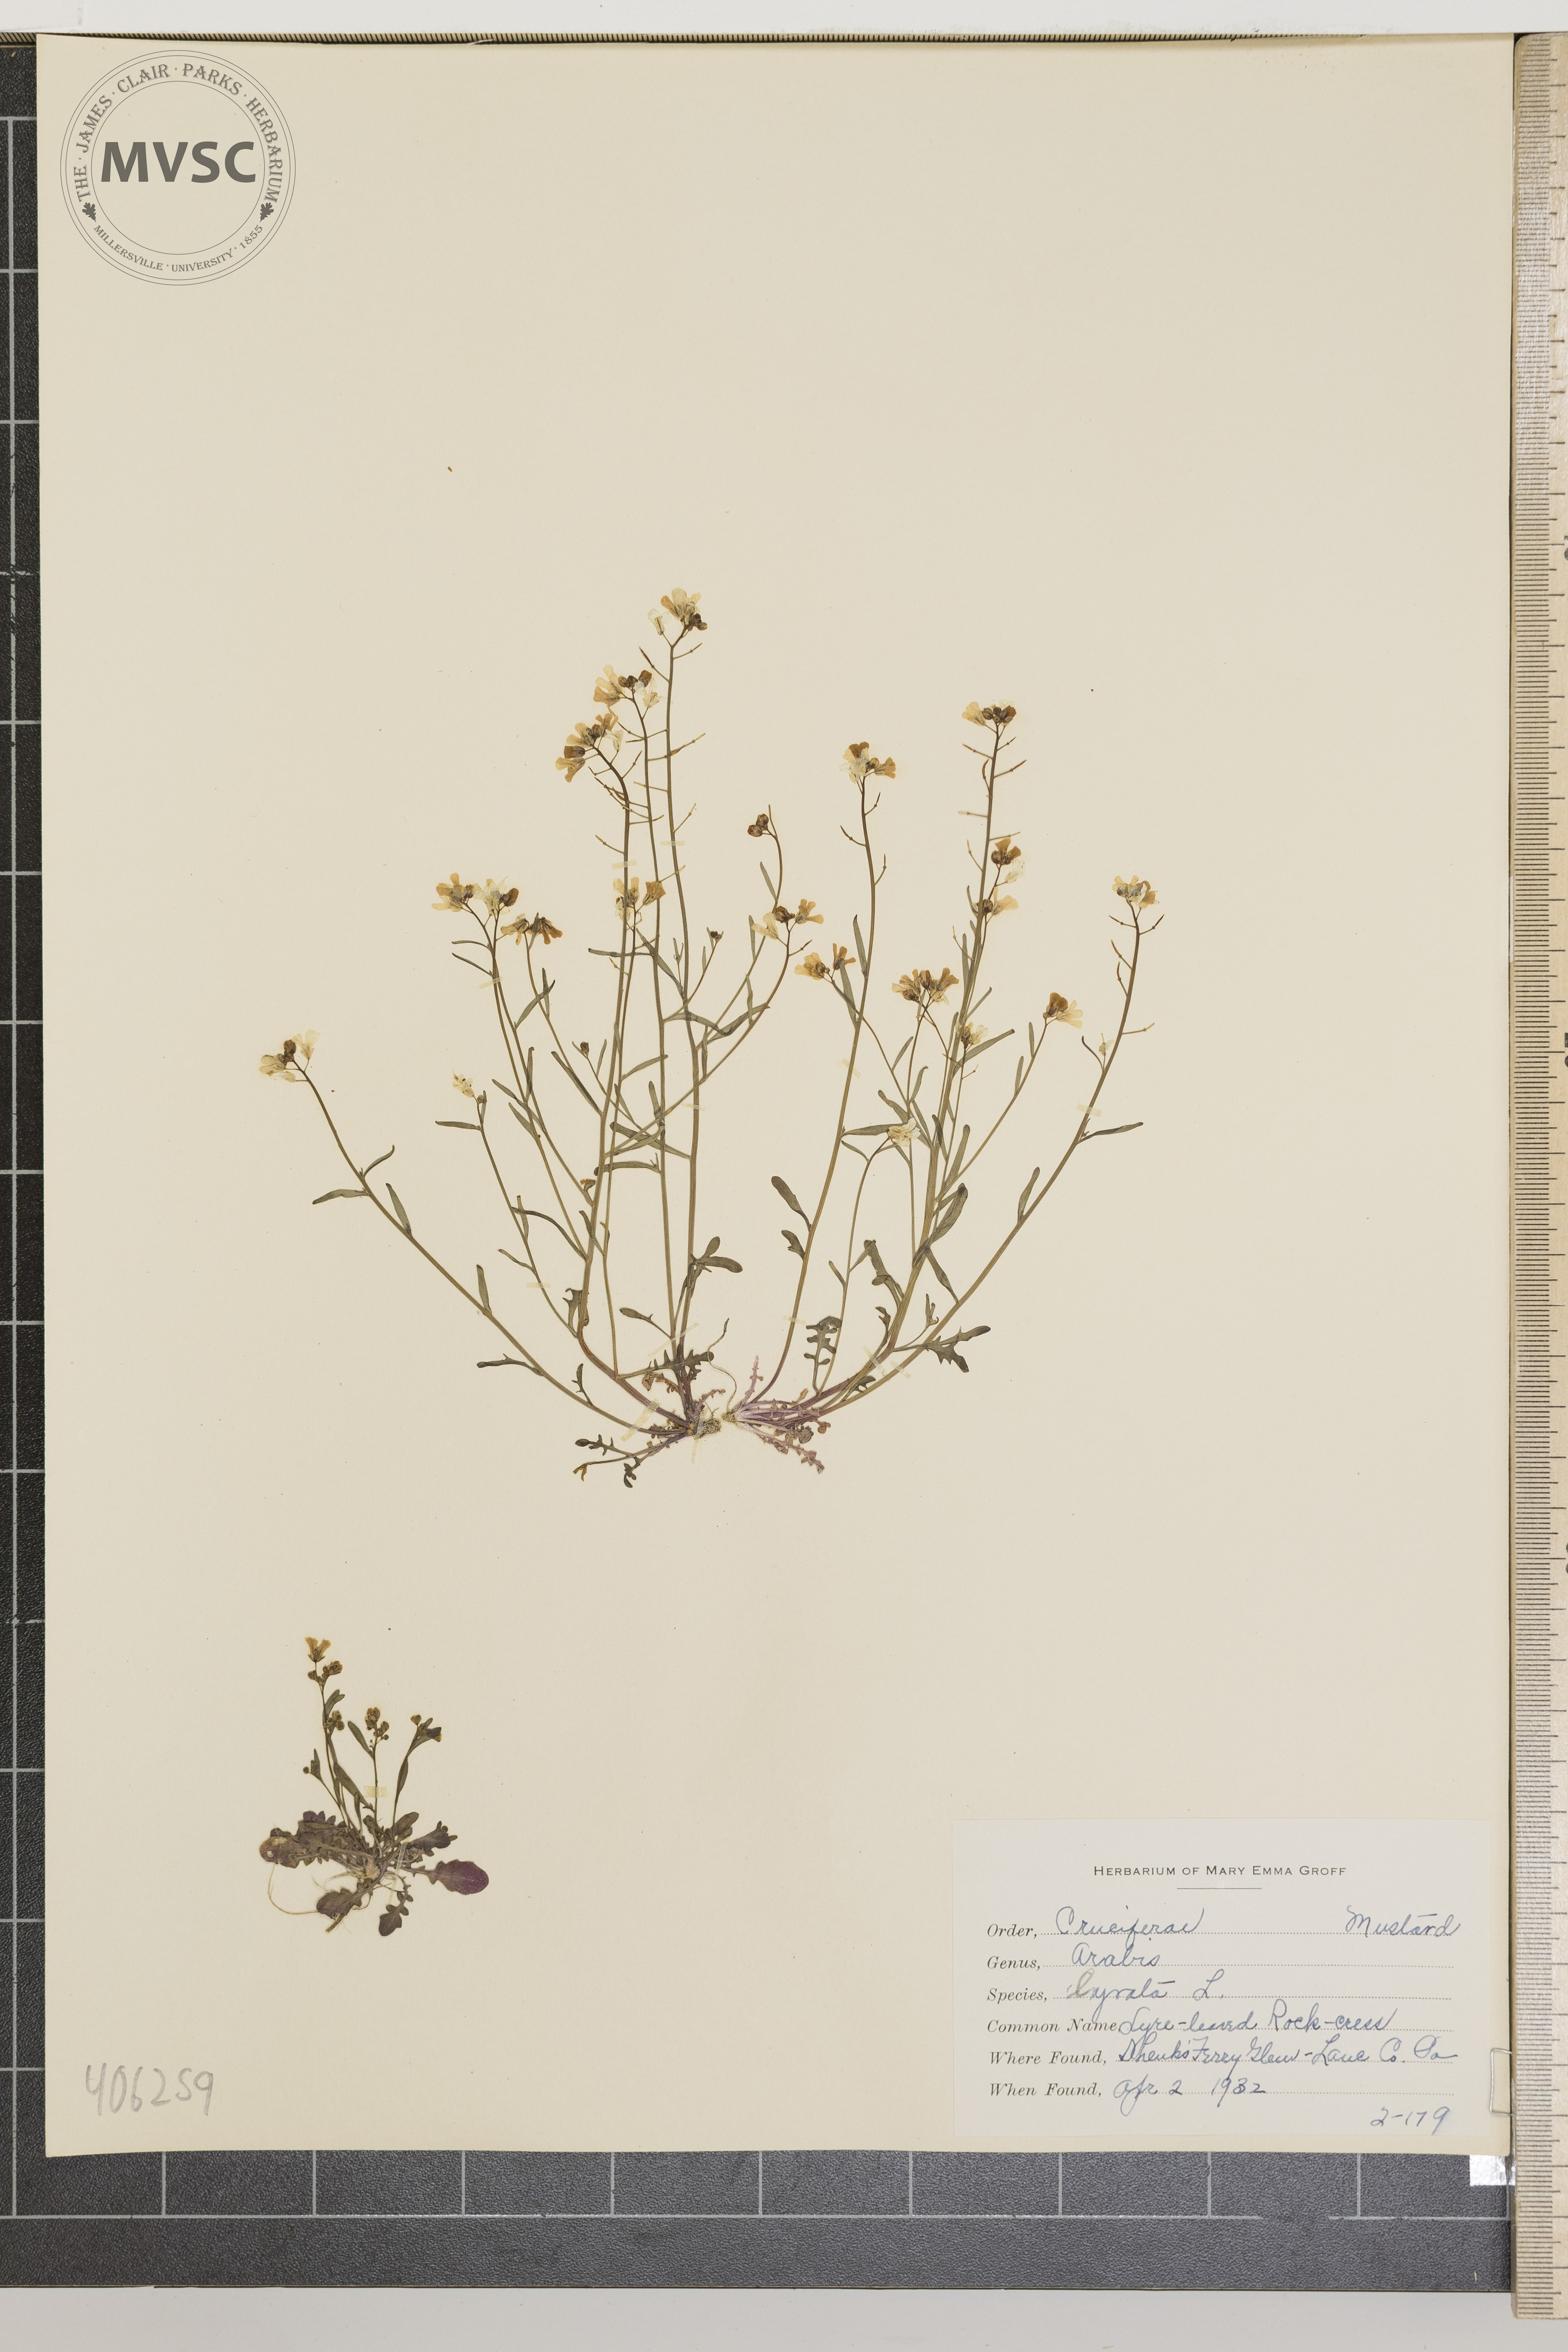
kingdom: Plantae
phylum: Tracheophyta
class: Magnoliopsida
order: Brassicales
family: Brassicaceae
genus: Arabidopsis
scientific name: Arabidopsis lyrata
